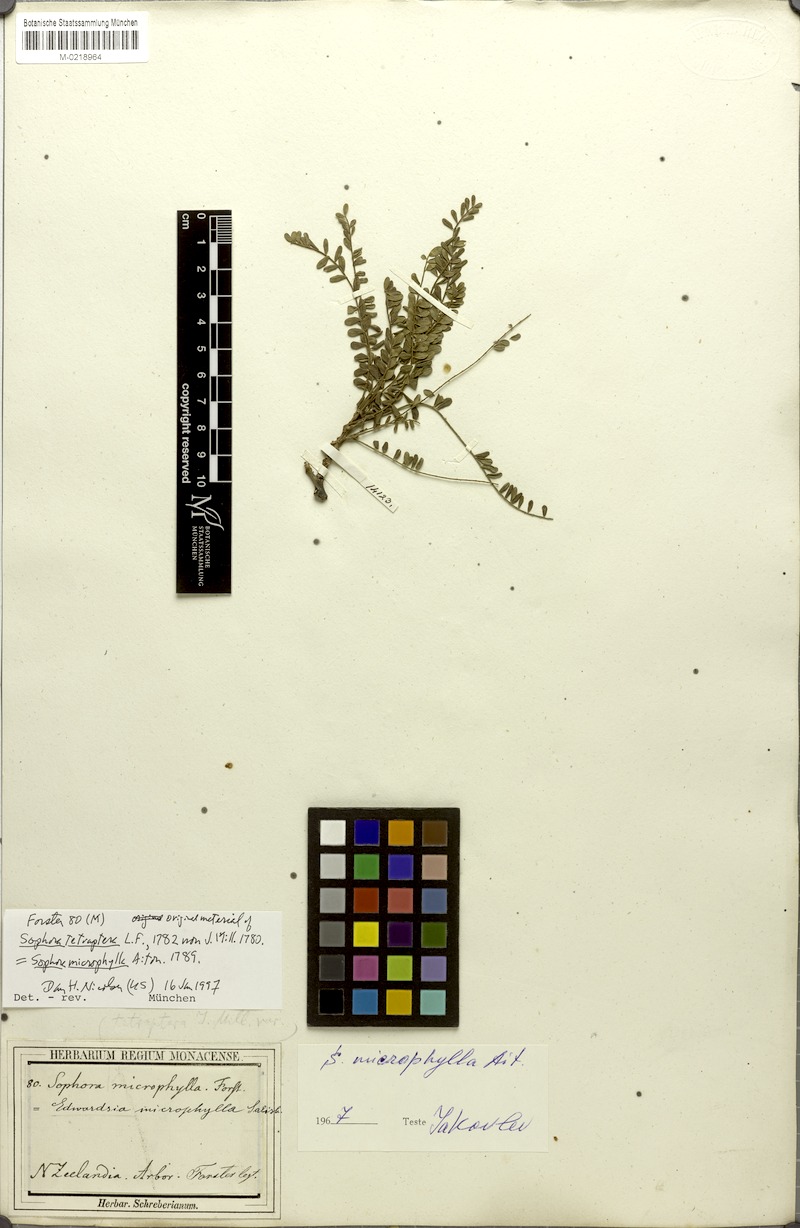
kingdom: Plantae
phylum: Tracheophyta
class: Magnoliopsida
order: Fabales
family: Fabaceae
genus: Sophora
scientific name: Sophora microphylla
